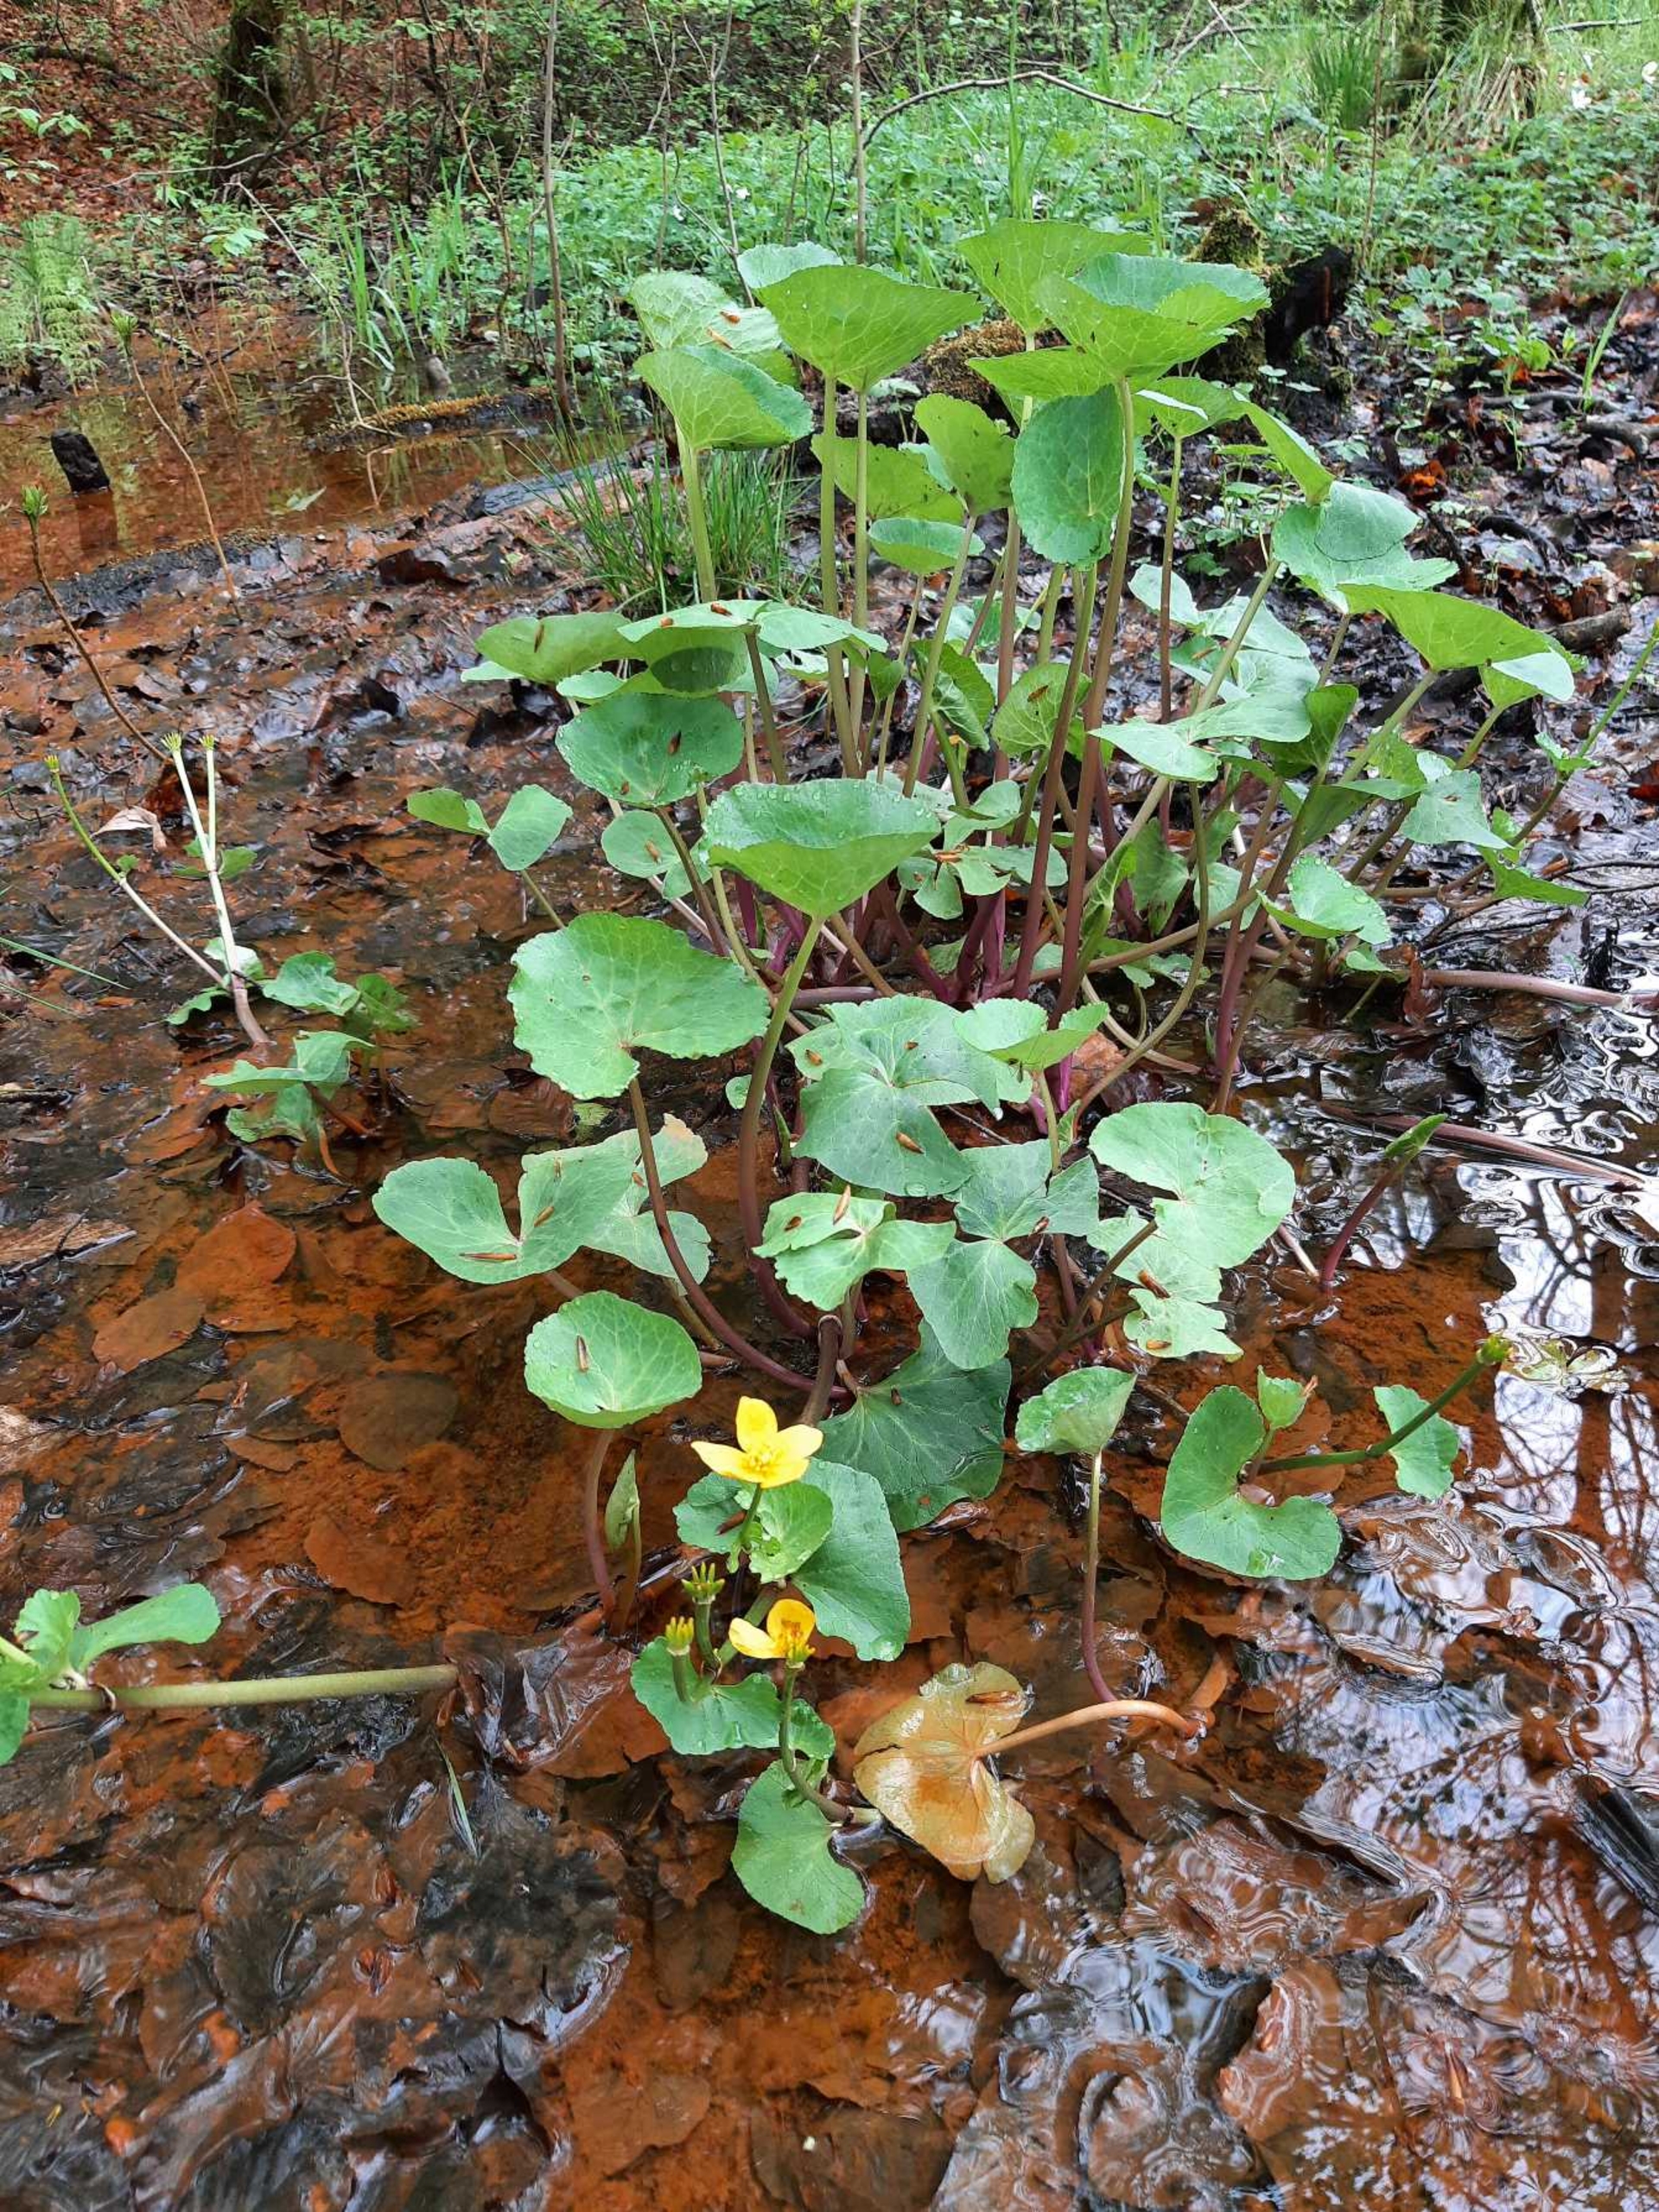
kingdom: Plantae
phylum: Tracheophyta
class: Magnoliopsida
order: Ranunculales
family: Ranunculaceae
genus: Caltha
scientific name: Caltha palustris
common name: Eng-kabbeleje
